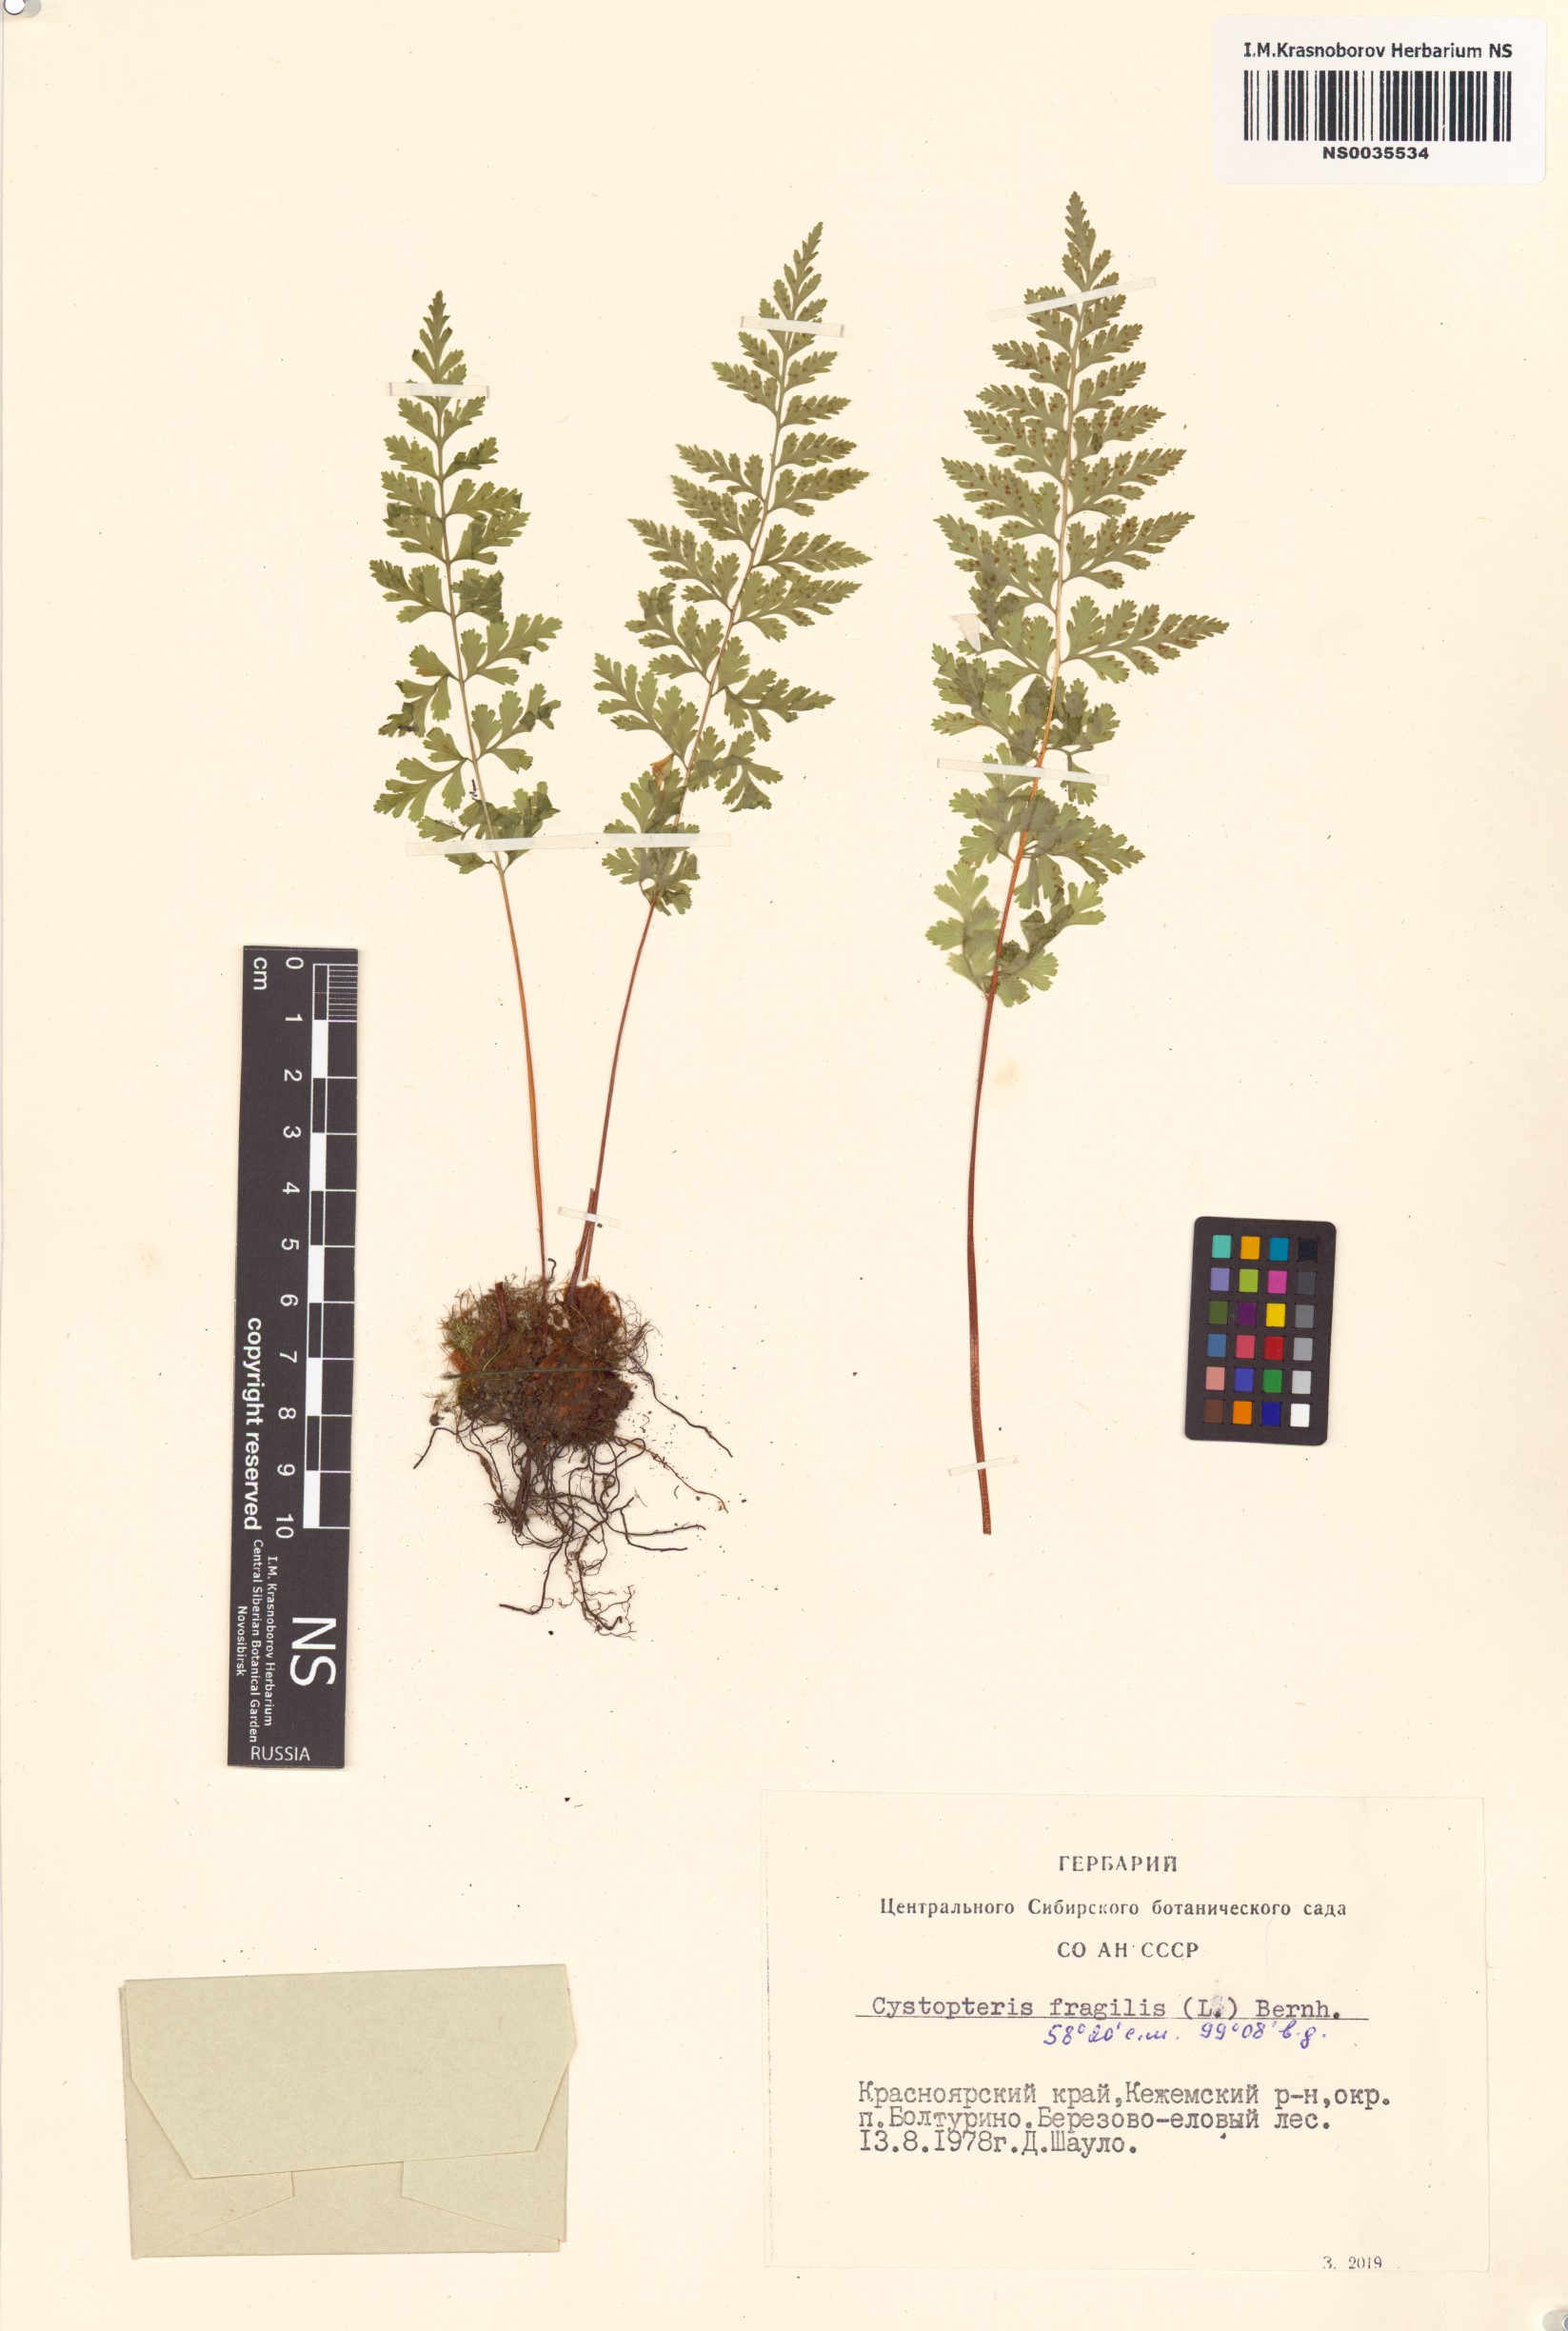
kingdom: Plantae
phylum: Tracheophyta
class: Polypodiopsida
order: Polypodiales
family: Cystopteridaceae
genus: Cystopteris
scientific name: Cystopteris fragilis
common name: Brittle bladder fern
